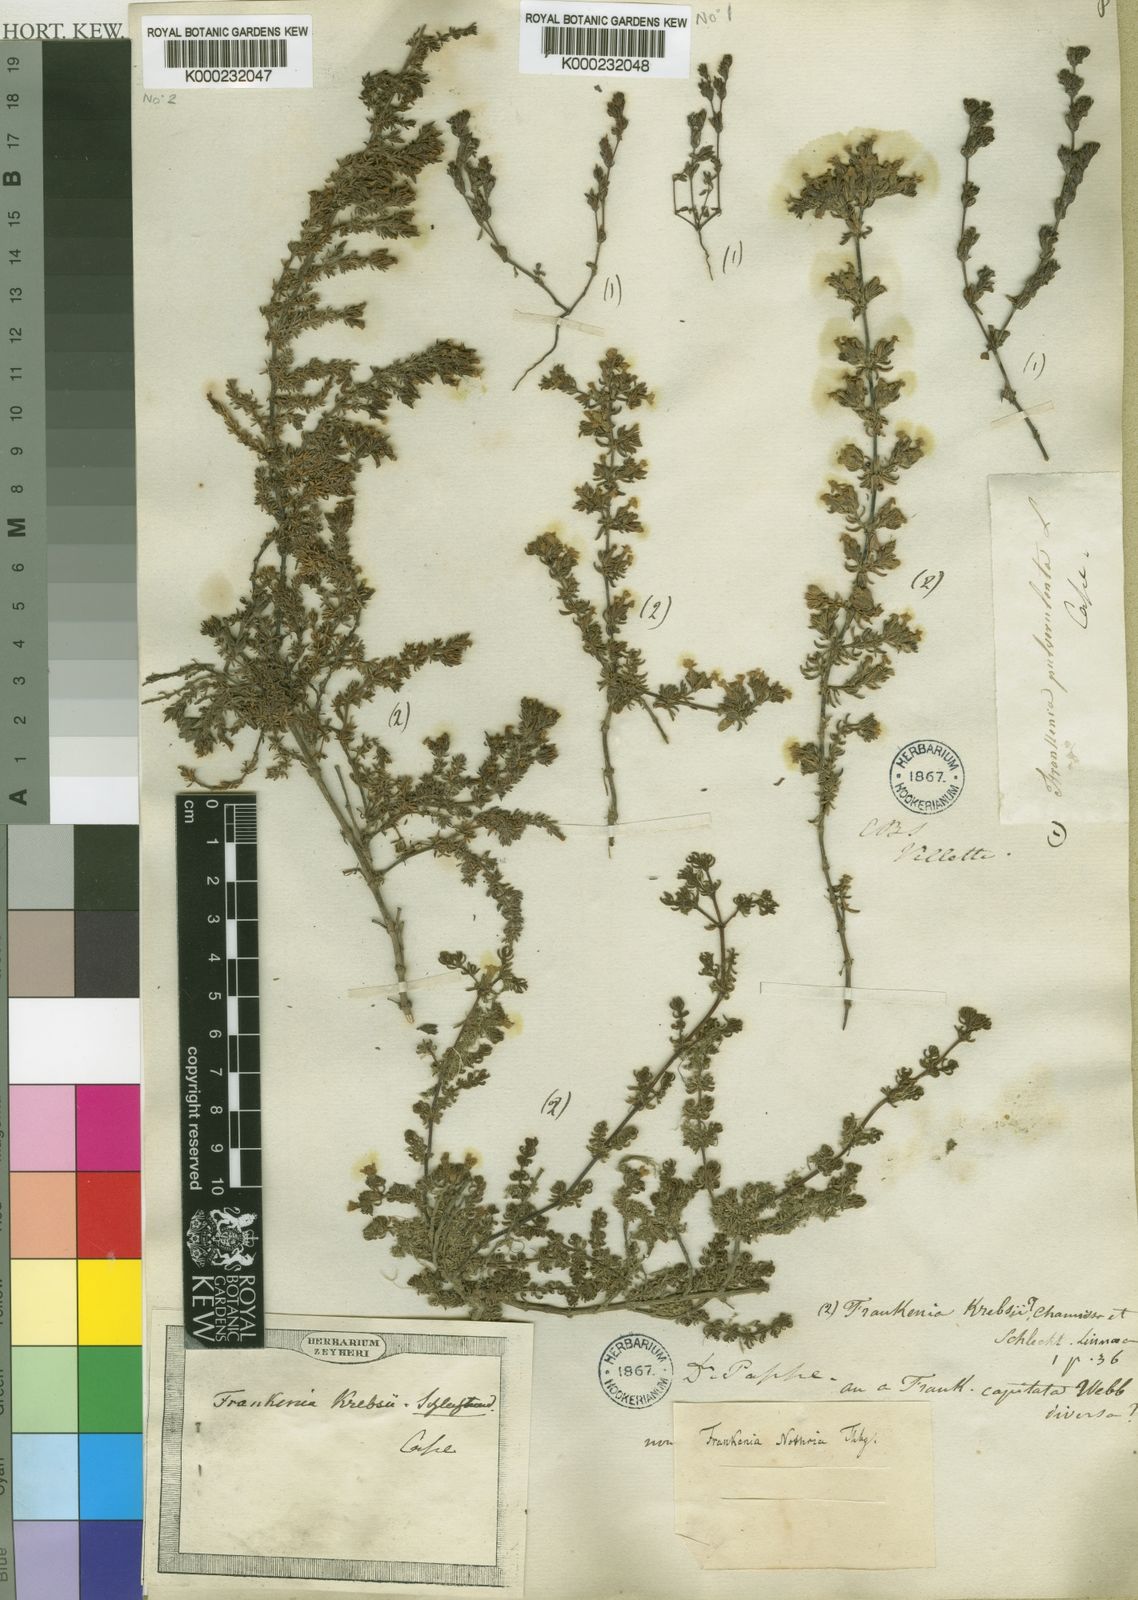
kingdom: Plantae
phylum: Tracheophyta
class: Magnoliopsida
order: Caryophyllales
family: Frankeniaceae
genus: Frankenia
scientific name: Frankenia laevis
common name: Sea-heath
